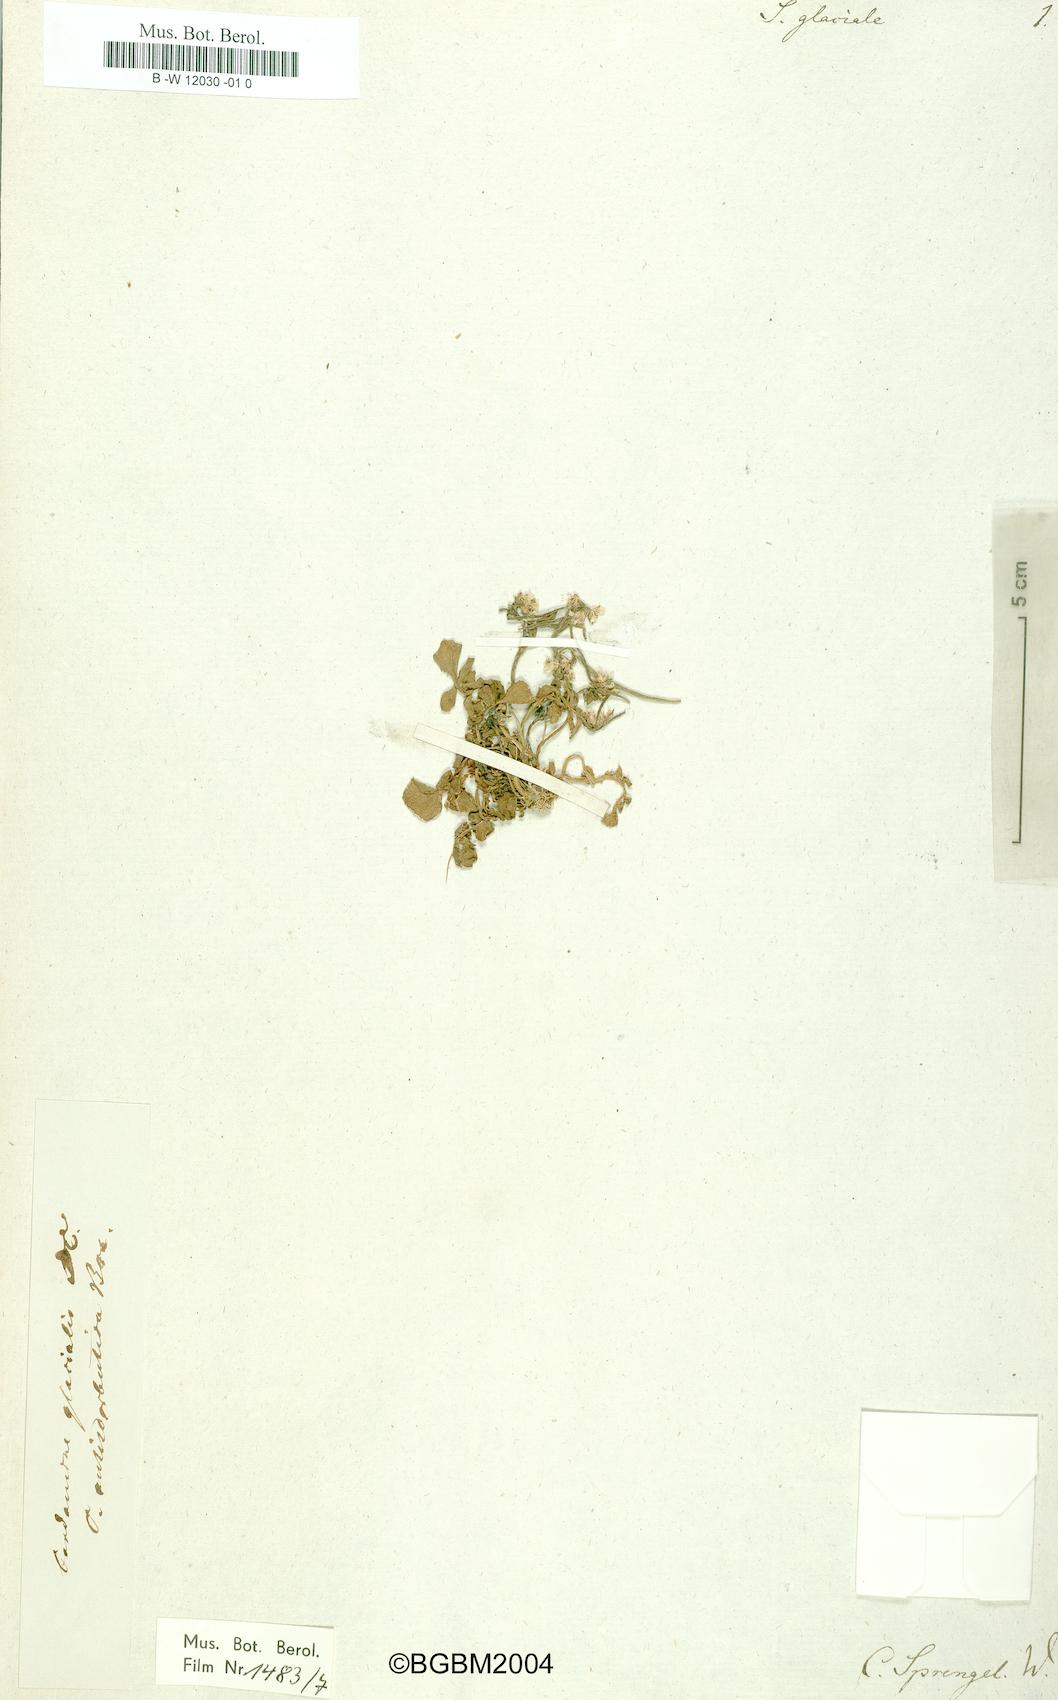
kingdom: Plantae
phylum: Tracheophyta
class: Magnoliopsida
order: Brassicales
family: Brassicaceae
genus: Cardamine
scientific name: Cardamine glacialis
